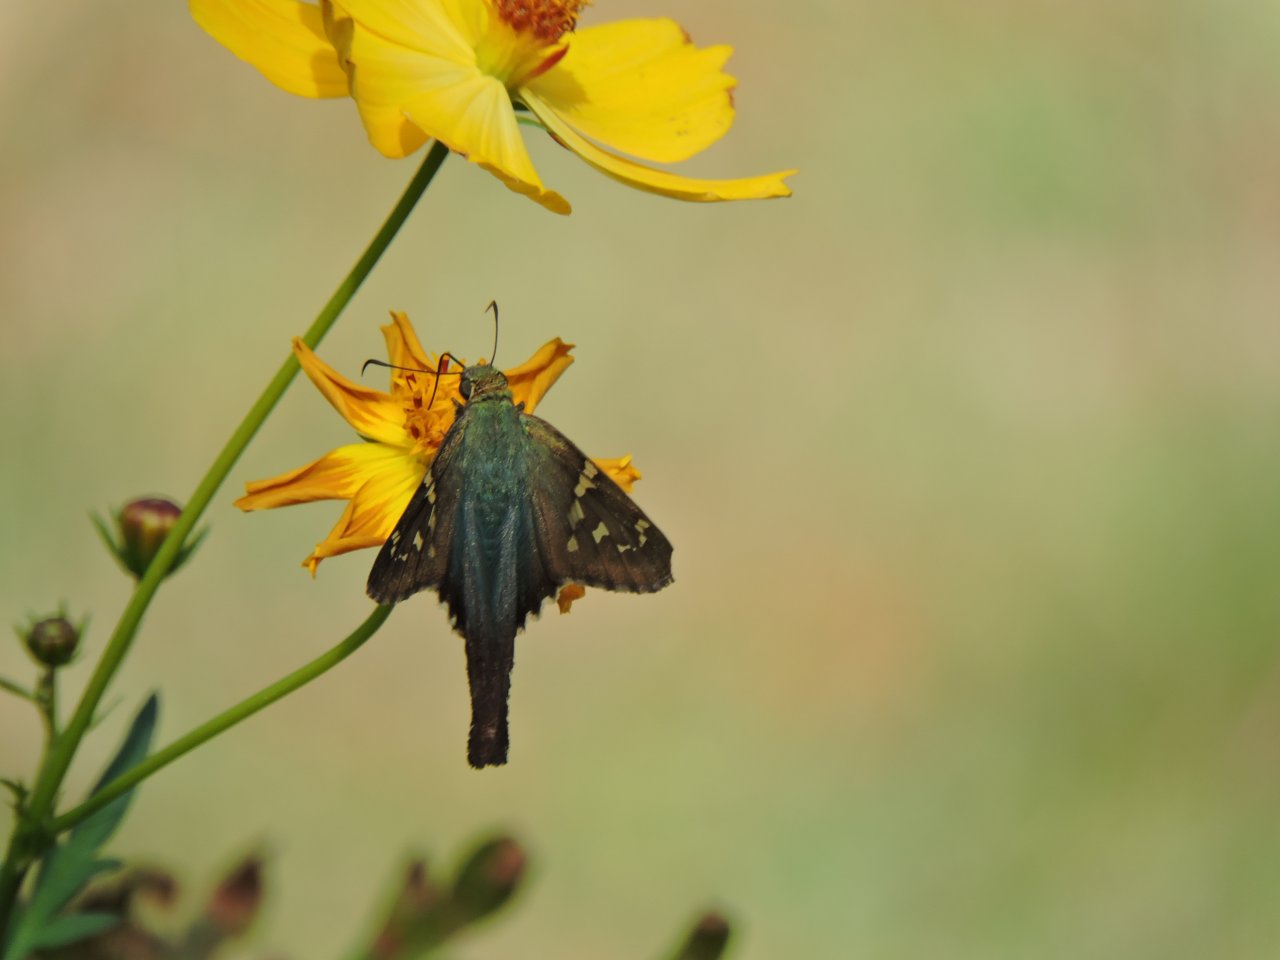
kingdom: Animalia
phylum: Arthropoda
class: Insecta
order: Lepidoptera
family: Hesperiidae
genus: Urbanus
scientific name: Urbanus proteus
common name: Long-tailed Skipper
